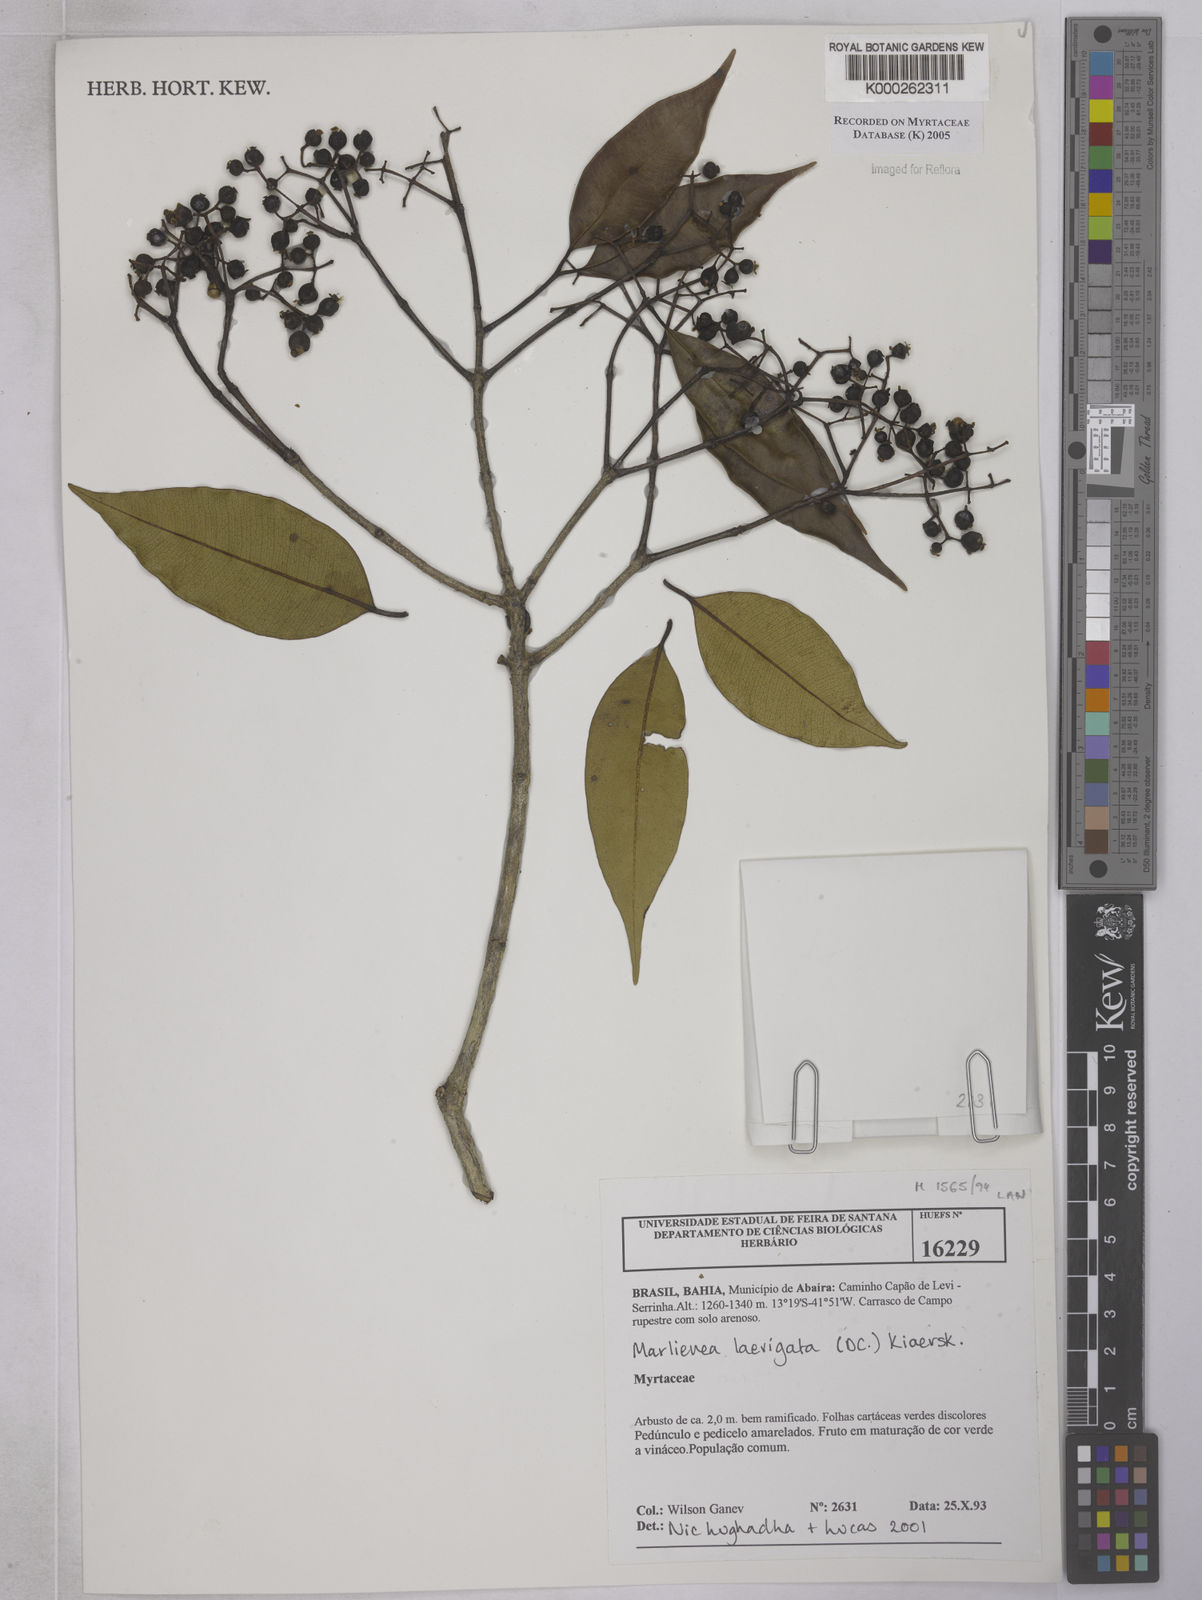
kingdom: Plantae
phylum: Tracheophyta
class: Magnoliopsida
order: Myrtales
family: Myrtaceae
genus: Myrcia
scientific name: Myrcia multipunctata
